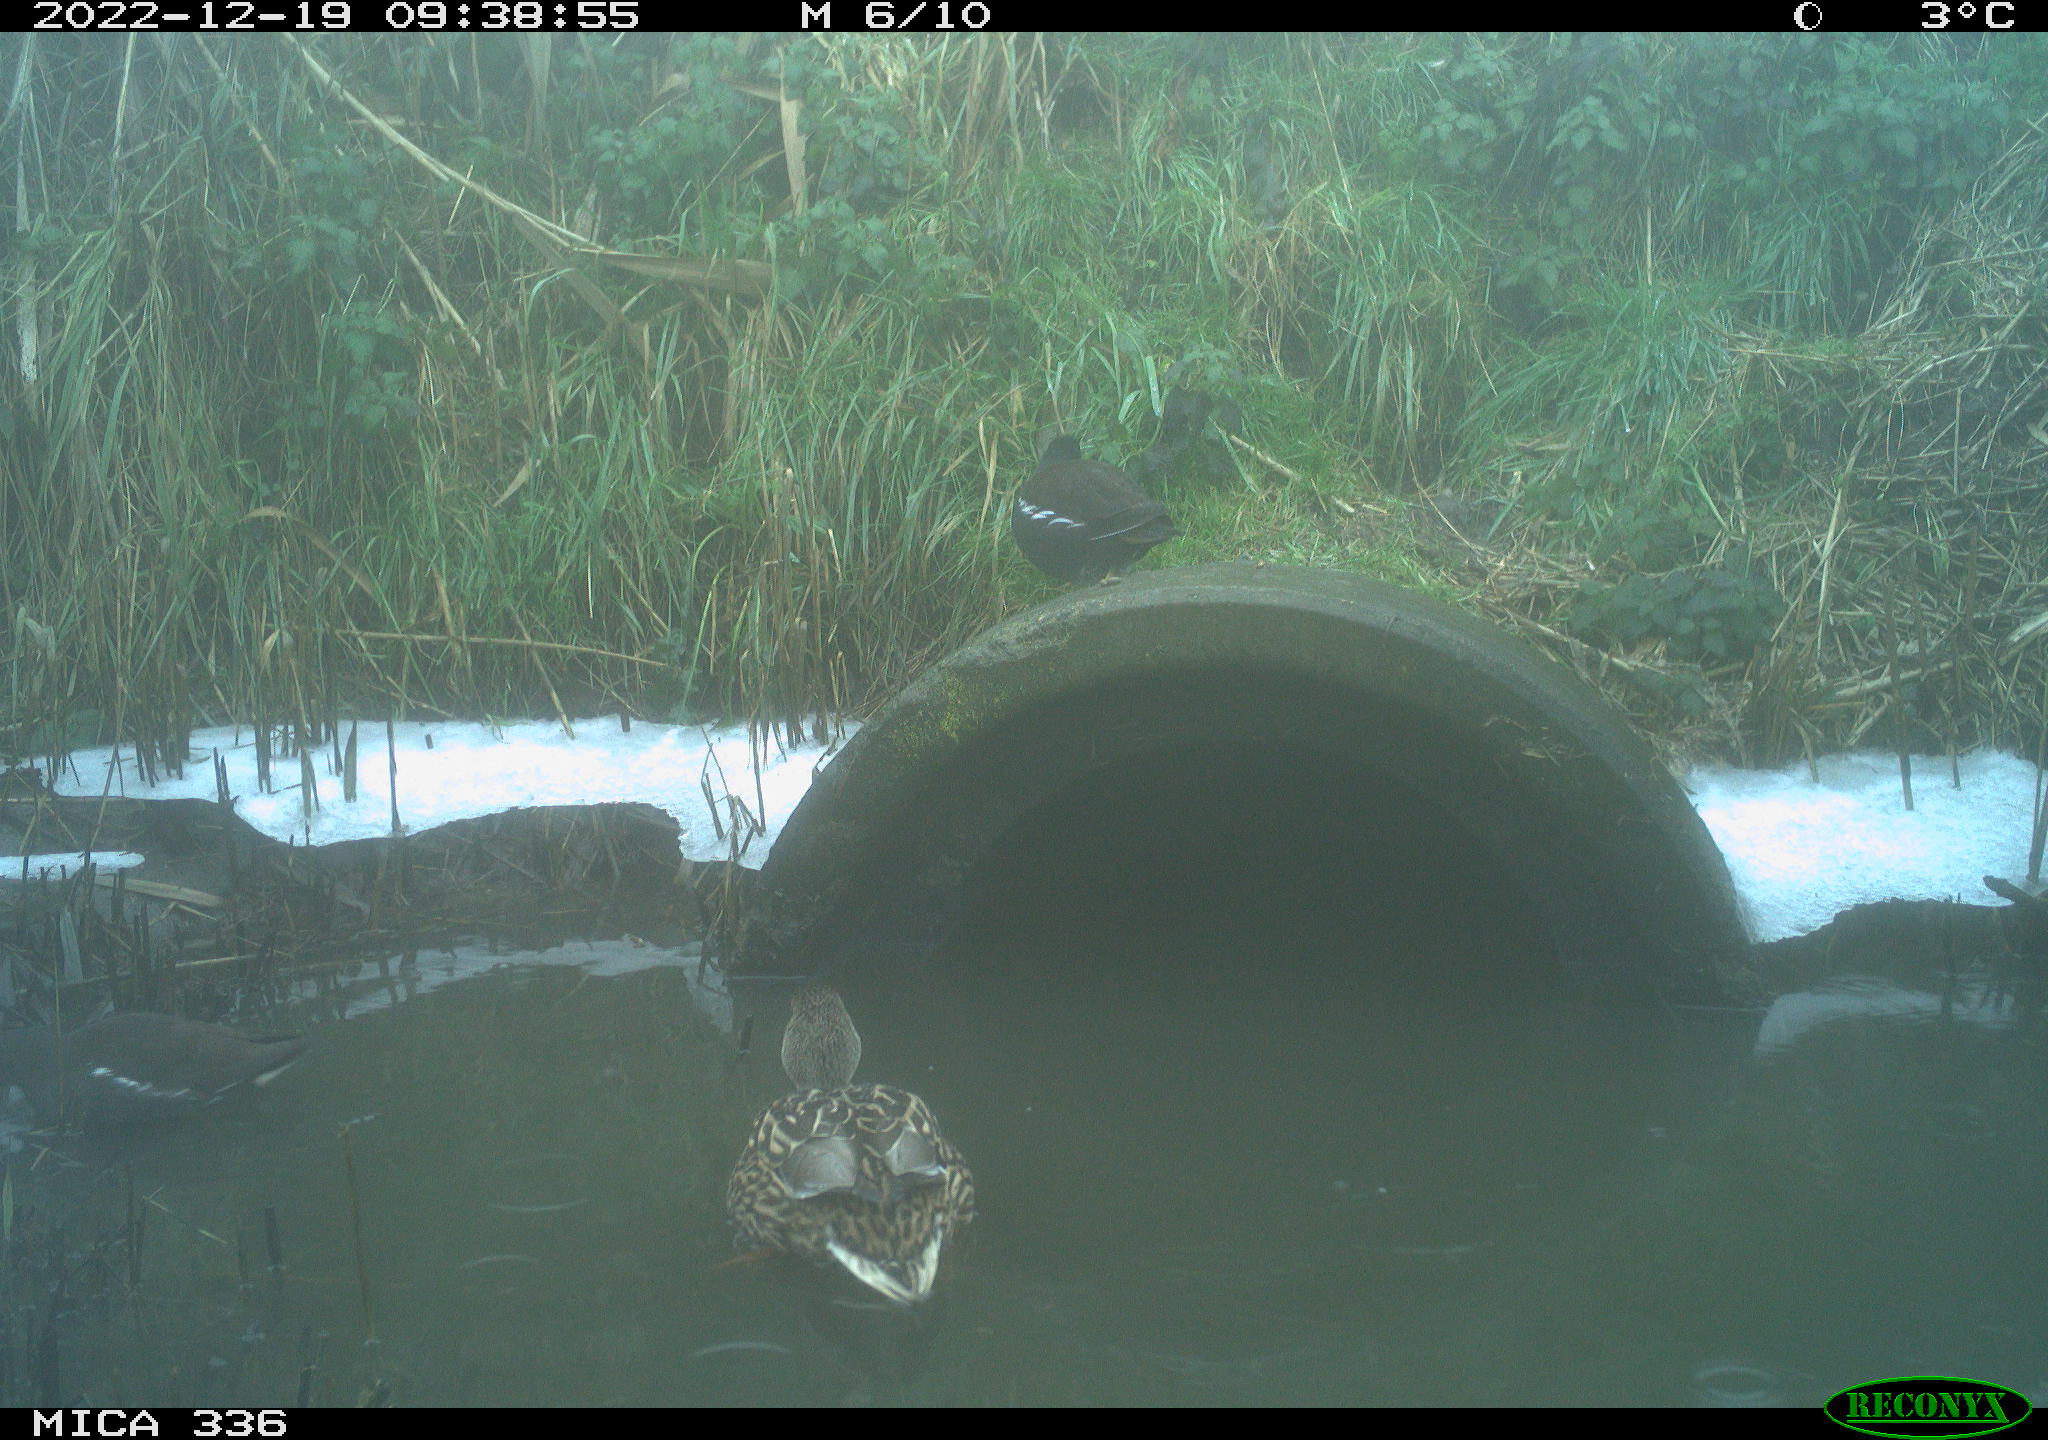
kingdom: Animalia
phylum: Chordata
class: Aves
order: Anseriformes
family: Anatidae
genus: Anas
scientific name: Anas
